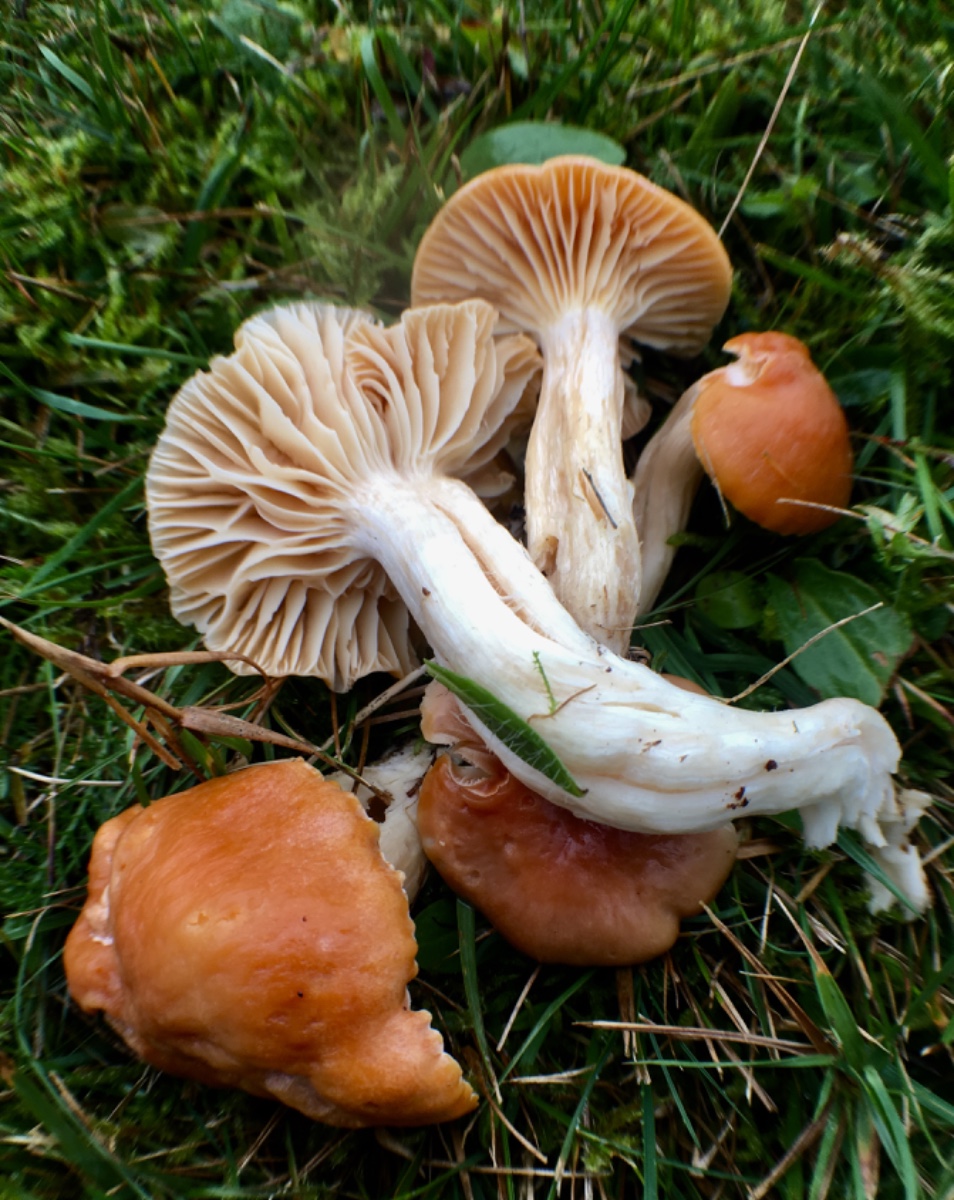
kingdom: Fungi
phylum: Basidiomycota
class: Agaricomycetes
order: Agaricales
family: Hygrophoraceae
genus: Cuphophyllus
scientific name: Cuphophyllus pratensis
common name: eng-vokshat
